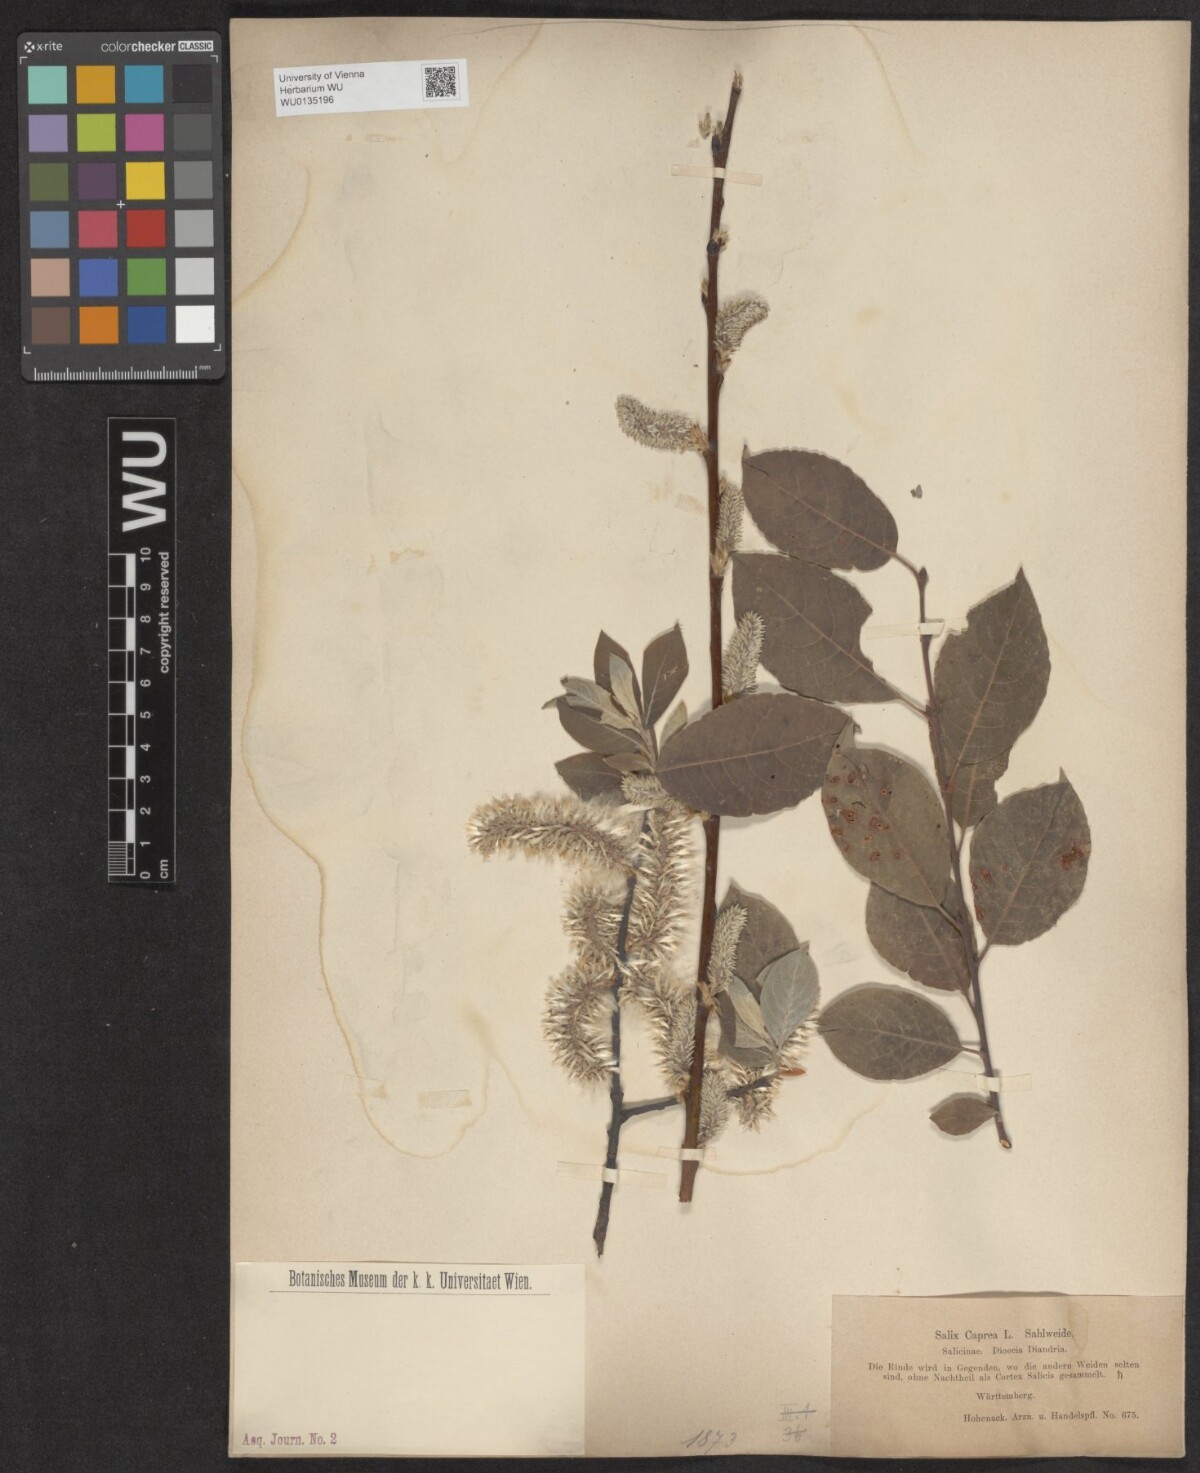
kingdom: Plantae
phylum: Tracheophyta
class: Magnoliopsida
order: Malpighiales
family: Salicaceae
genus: Salix
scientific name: Salix caprea
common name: Goat willow
